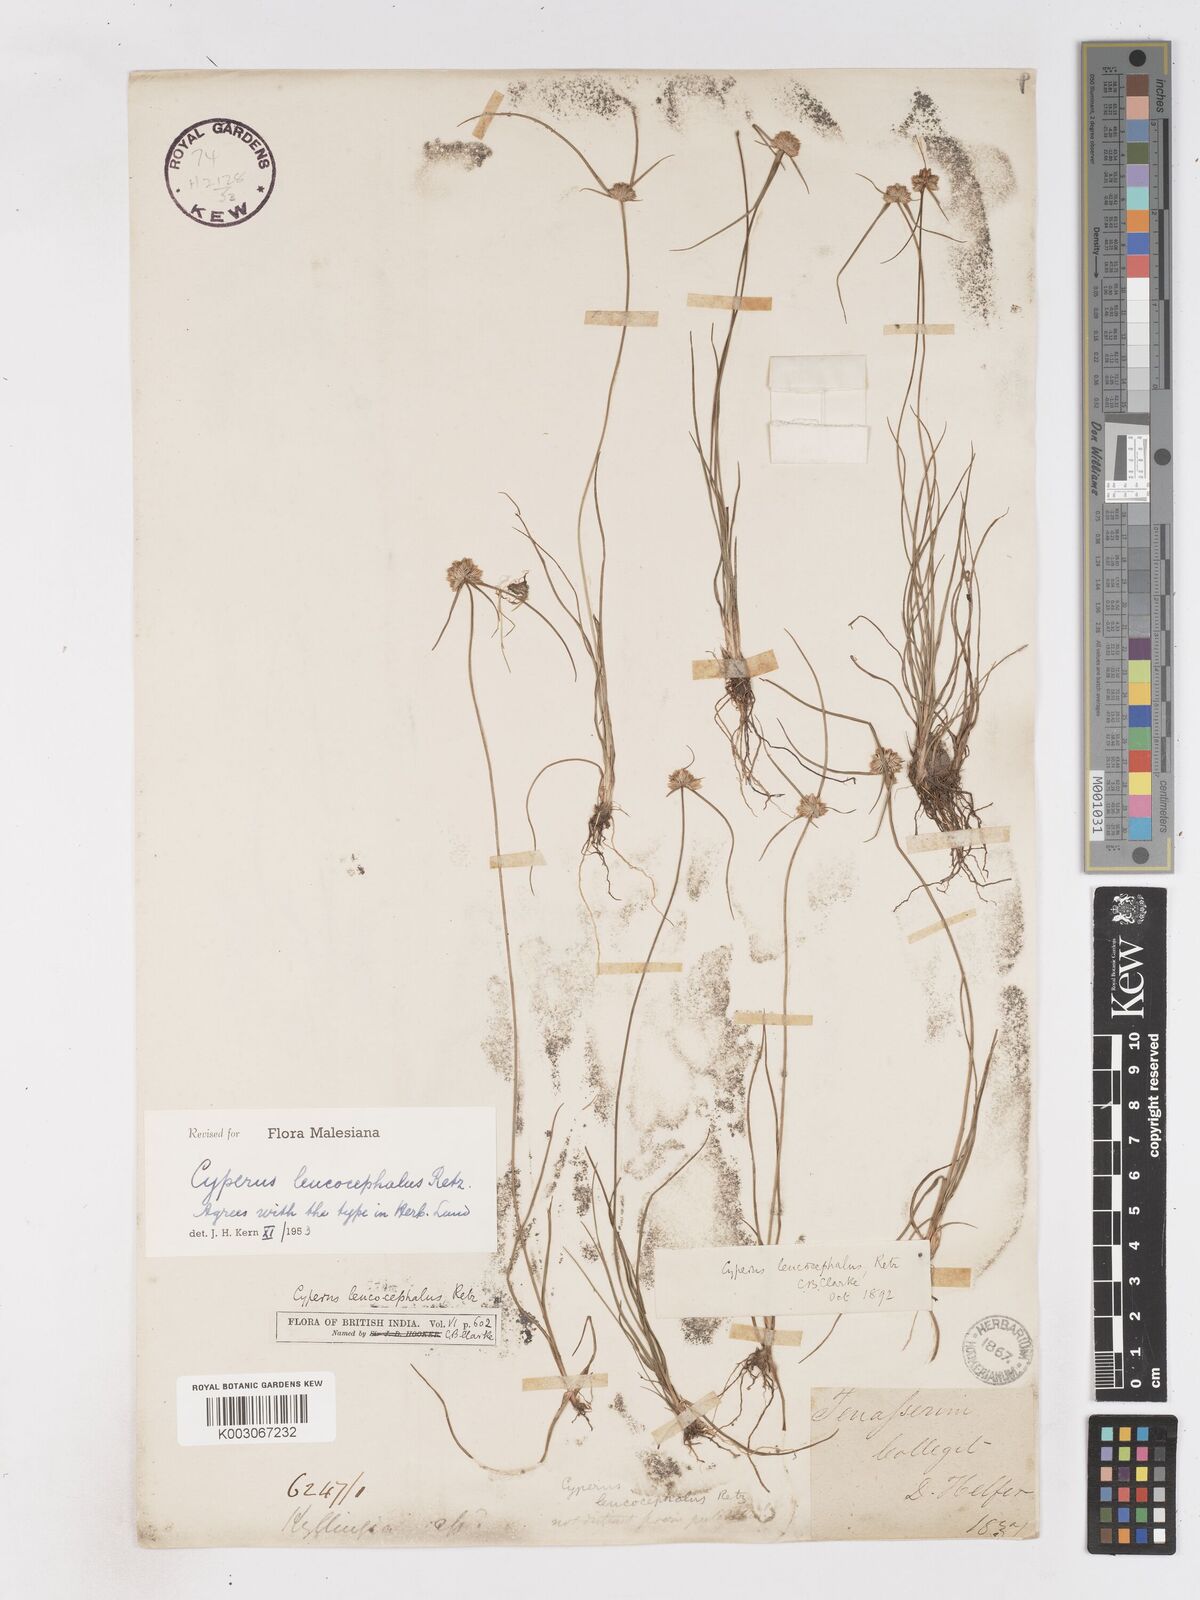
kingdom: Plantae
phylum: Tracheophyta
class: Liliopsida
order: Poales
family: Cyperaceae
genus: Cyperus
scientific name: Cyperus leucocephalus
